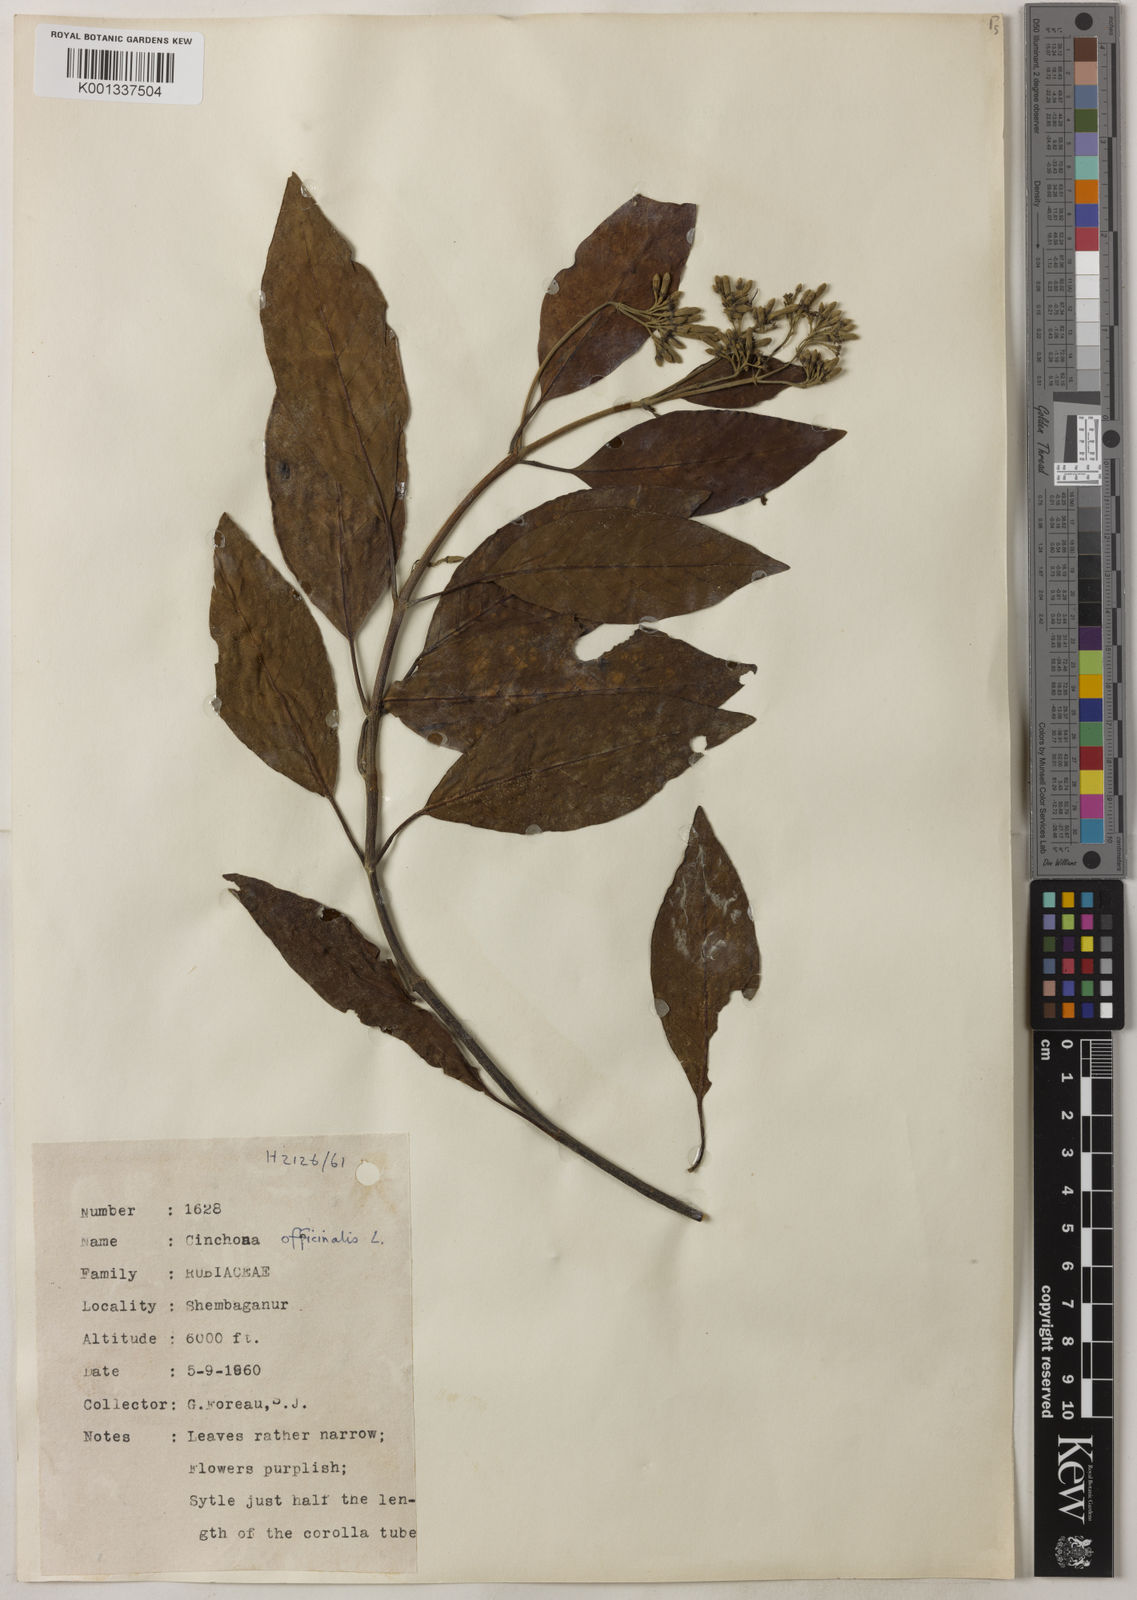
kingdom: Plantae
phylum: Tracheophyta
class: Magnoliopsida
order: Gentianales
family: Rubiaceae
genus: Cinchona
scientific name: Cinchona officinalis
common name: Lojabark
